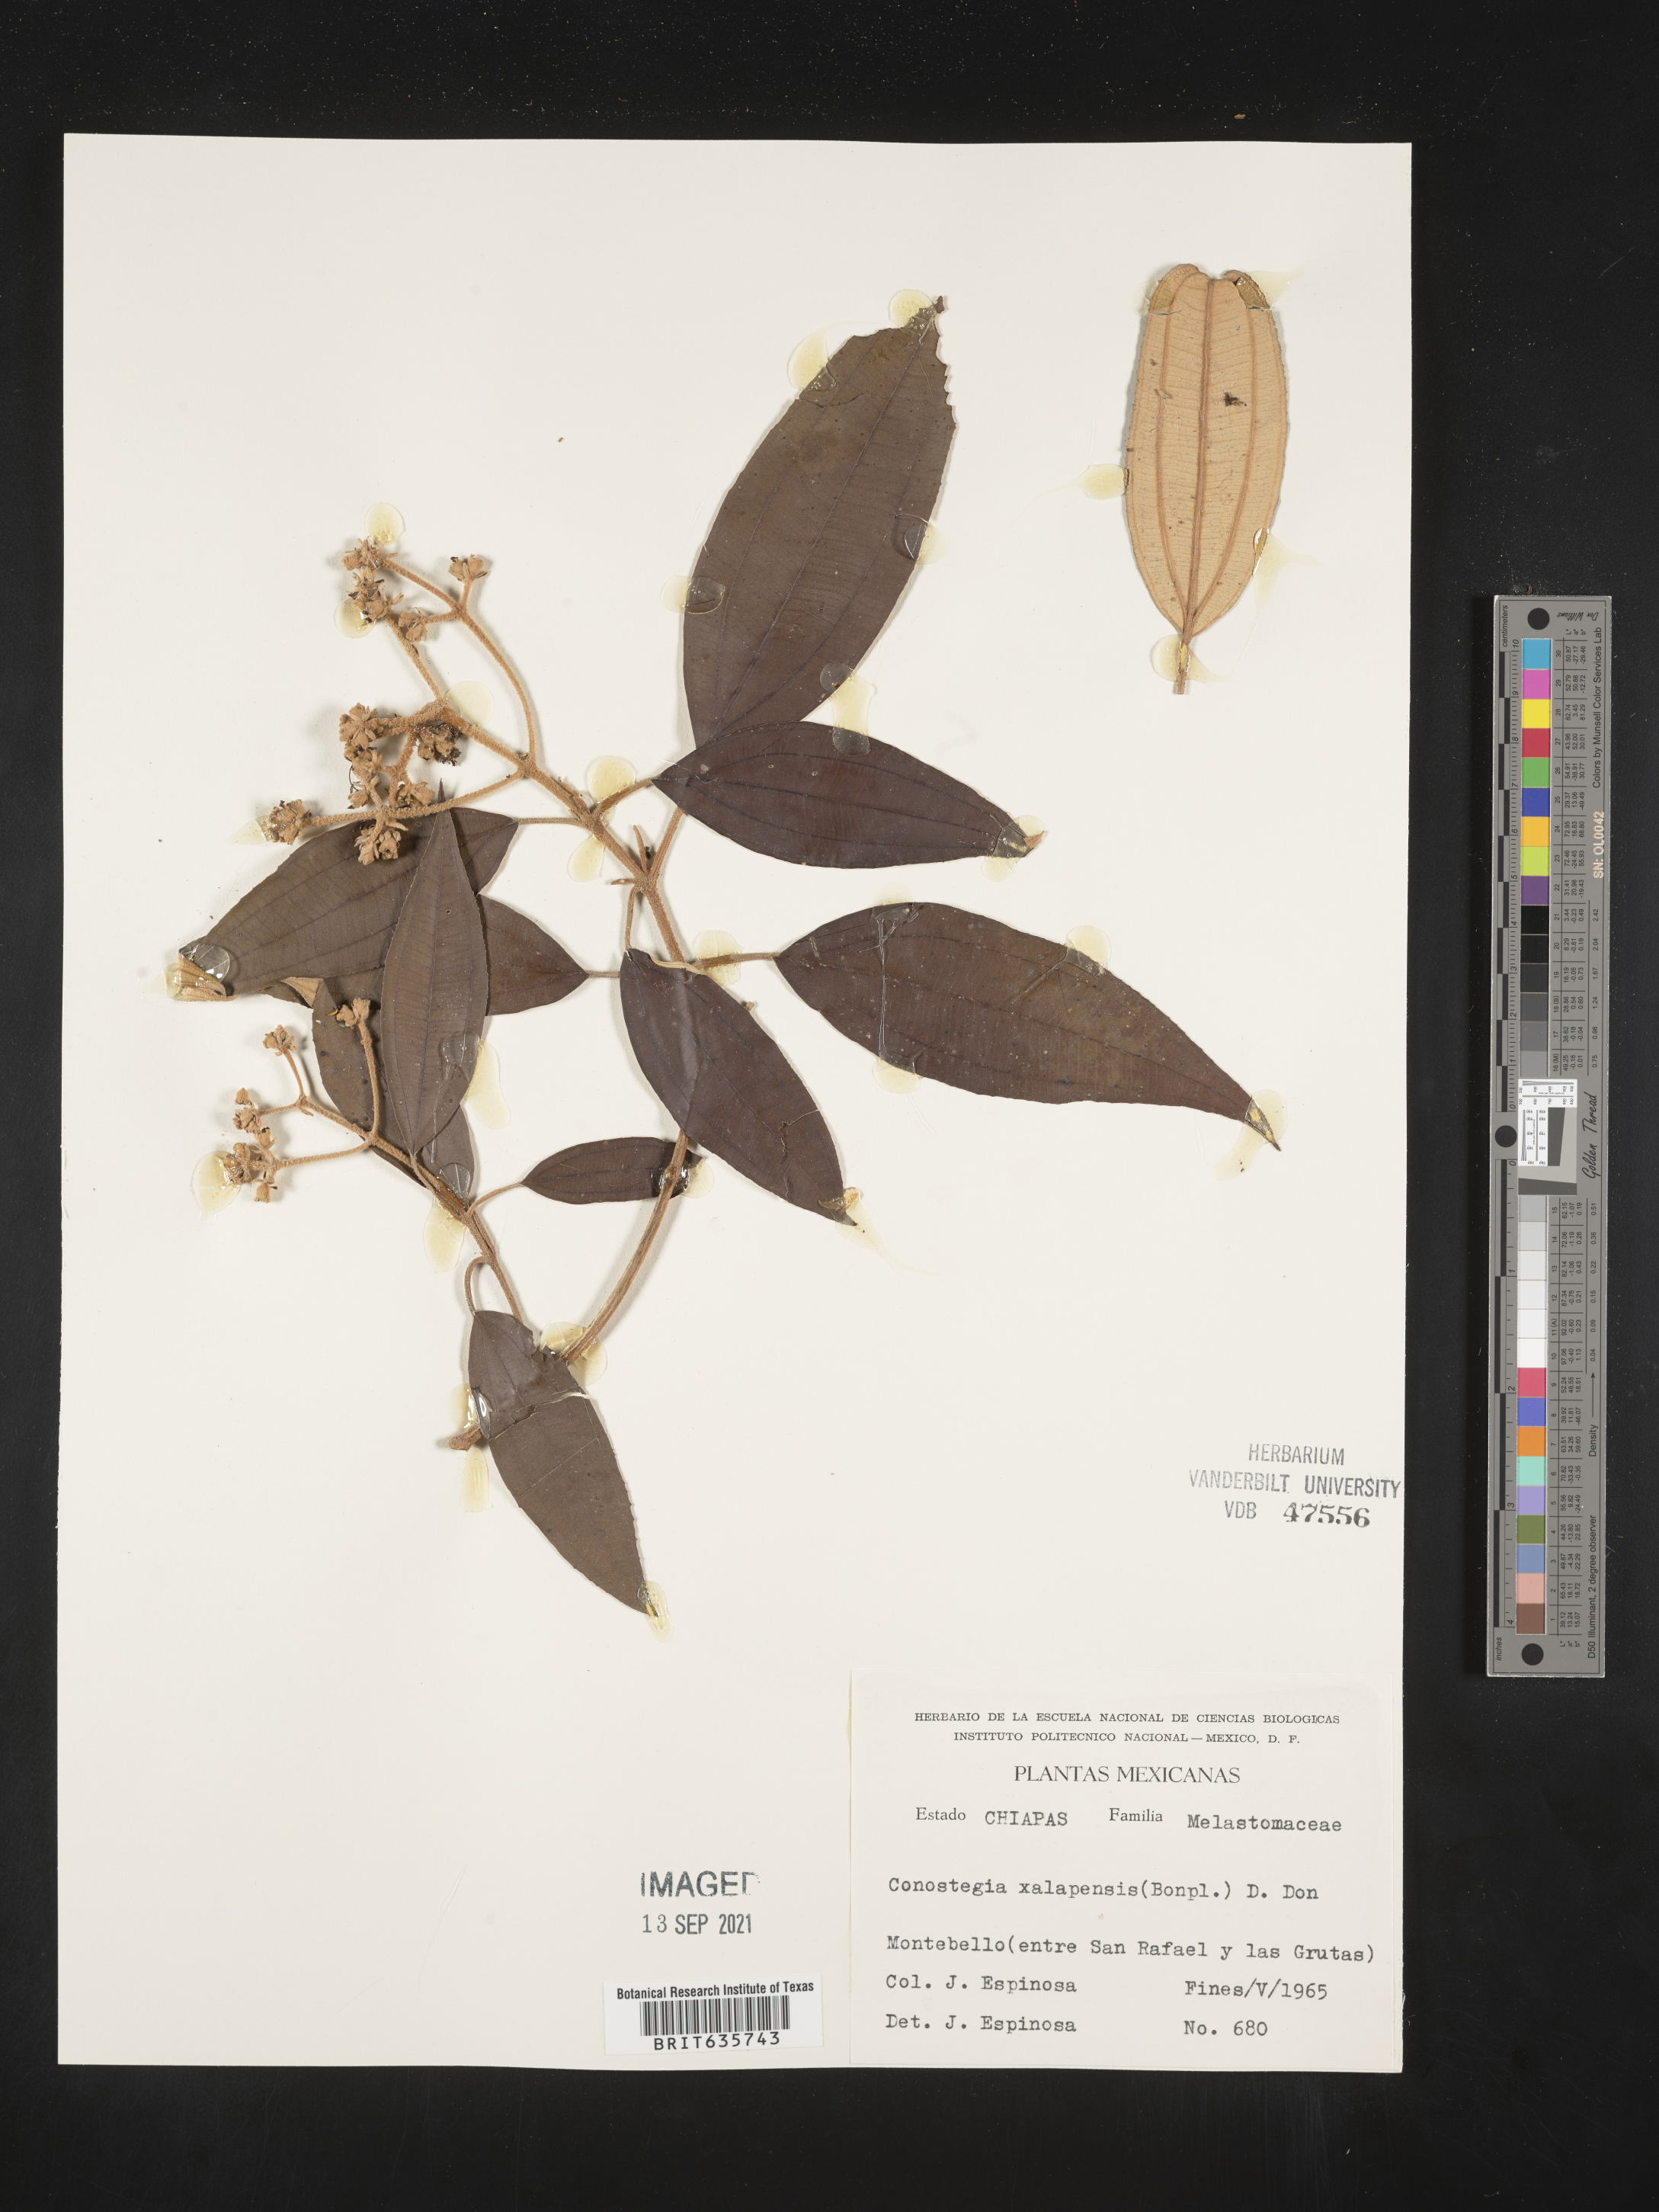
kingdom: Plantae
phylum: Tracheophyta
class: Magnoliopsida
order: Myrtales
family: Melastomataceae
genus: Miconia
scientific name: Miconia
